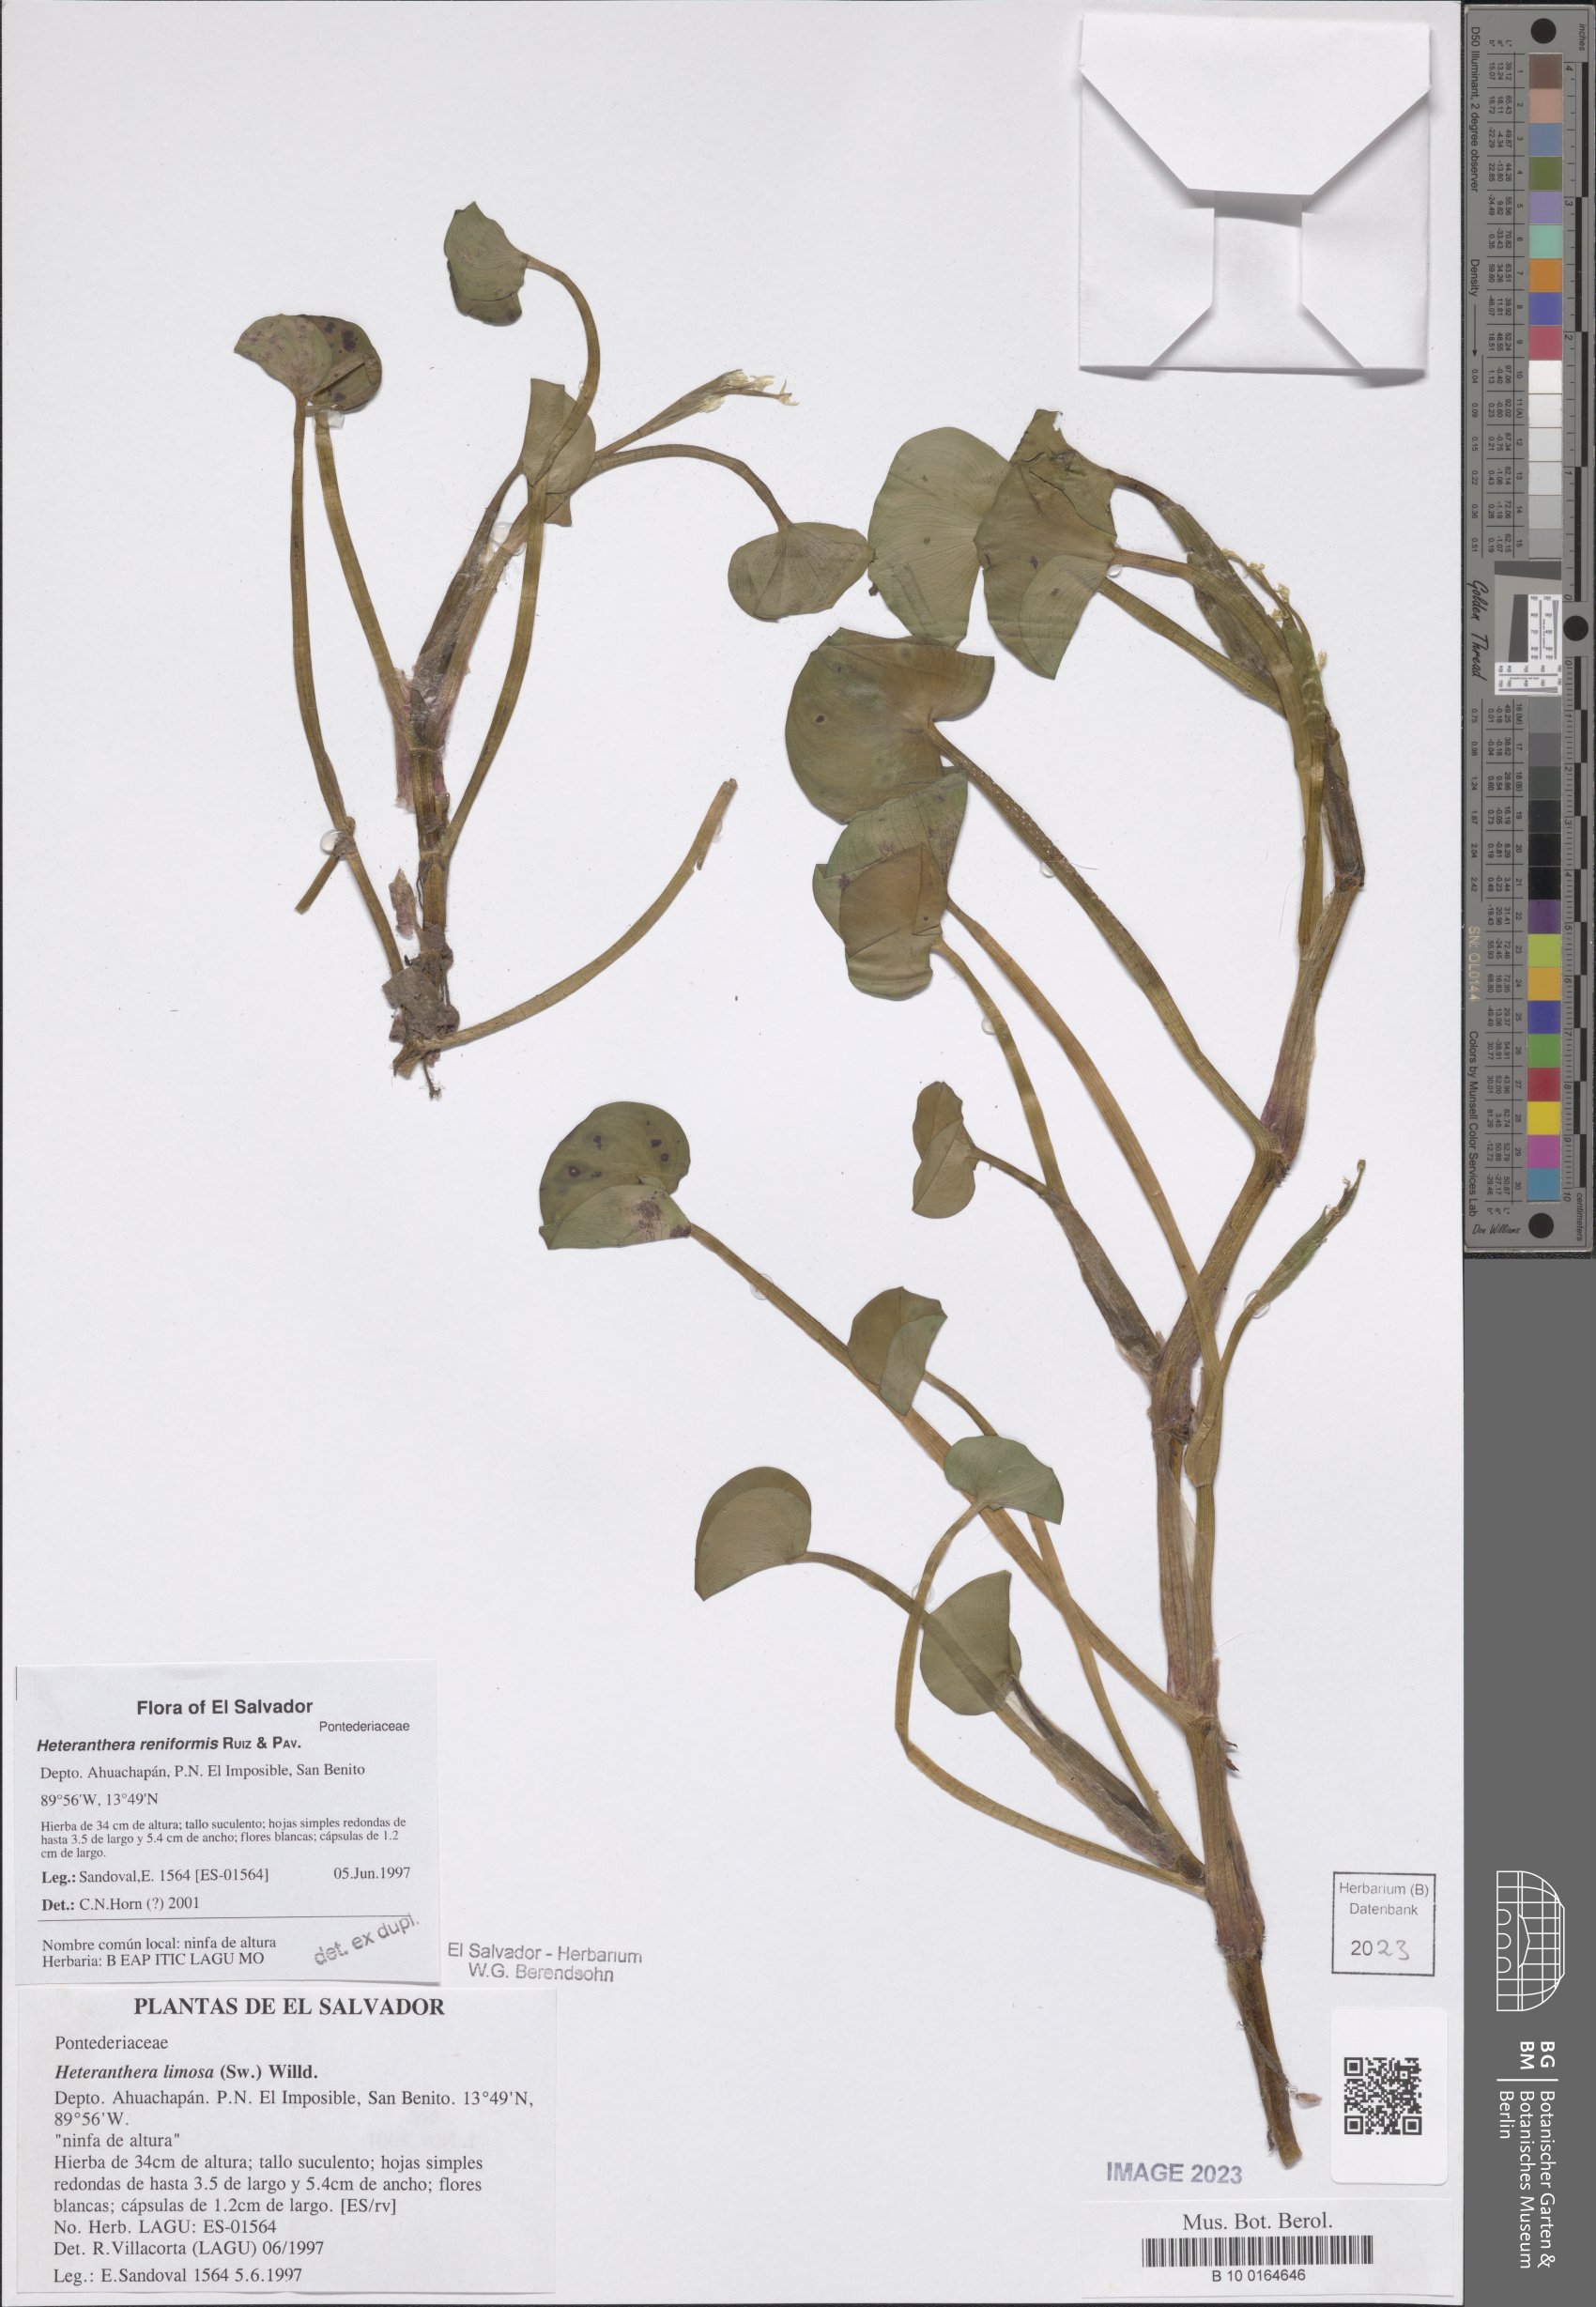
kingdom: Plantae
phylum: Tracheophyta
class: Liliopsida
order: Commelinales
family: Pontederiaceae
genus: Heteranthera
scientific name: Heteranthera reniformis
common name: Kidneyleaf mudplantain
